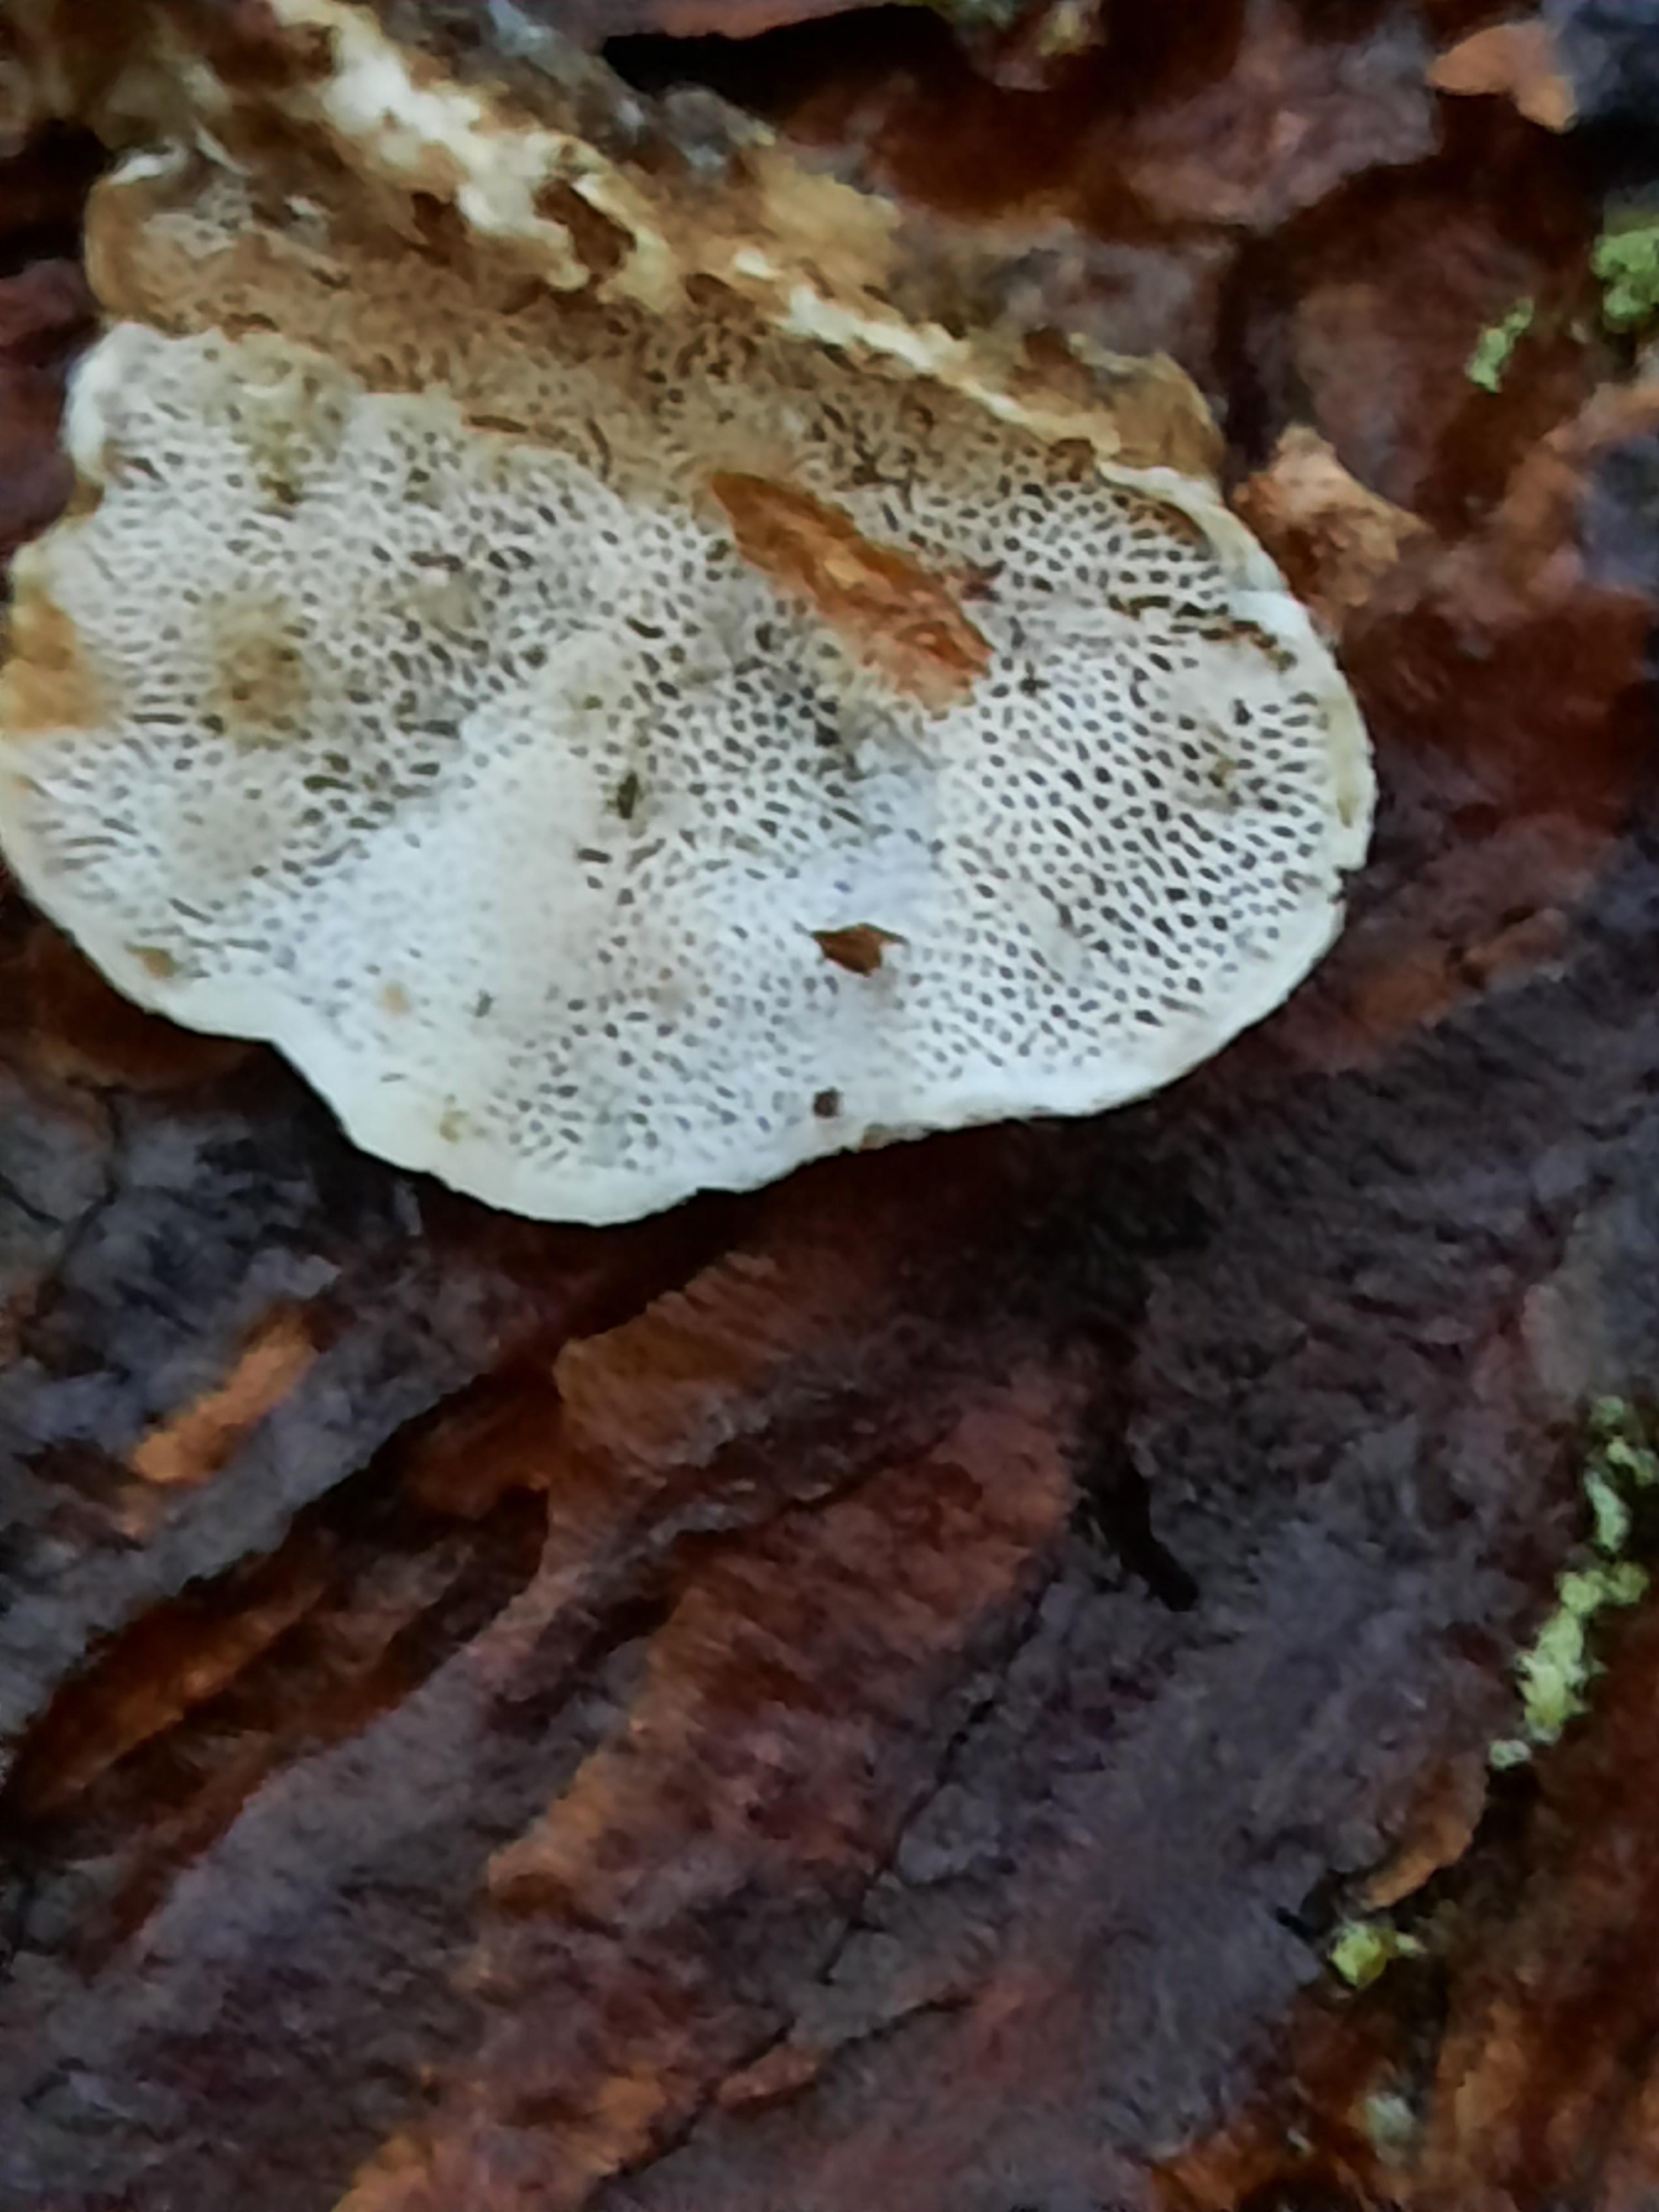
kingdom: Fungi
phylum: Basidiomycota
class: Agaricomycetes
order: Polyporales
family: Incrustoporiaceae
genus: Skeletocutis
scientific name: Skeletocutis carneogrisea
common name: rødgrå krystalporesvamp
